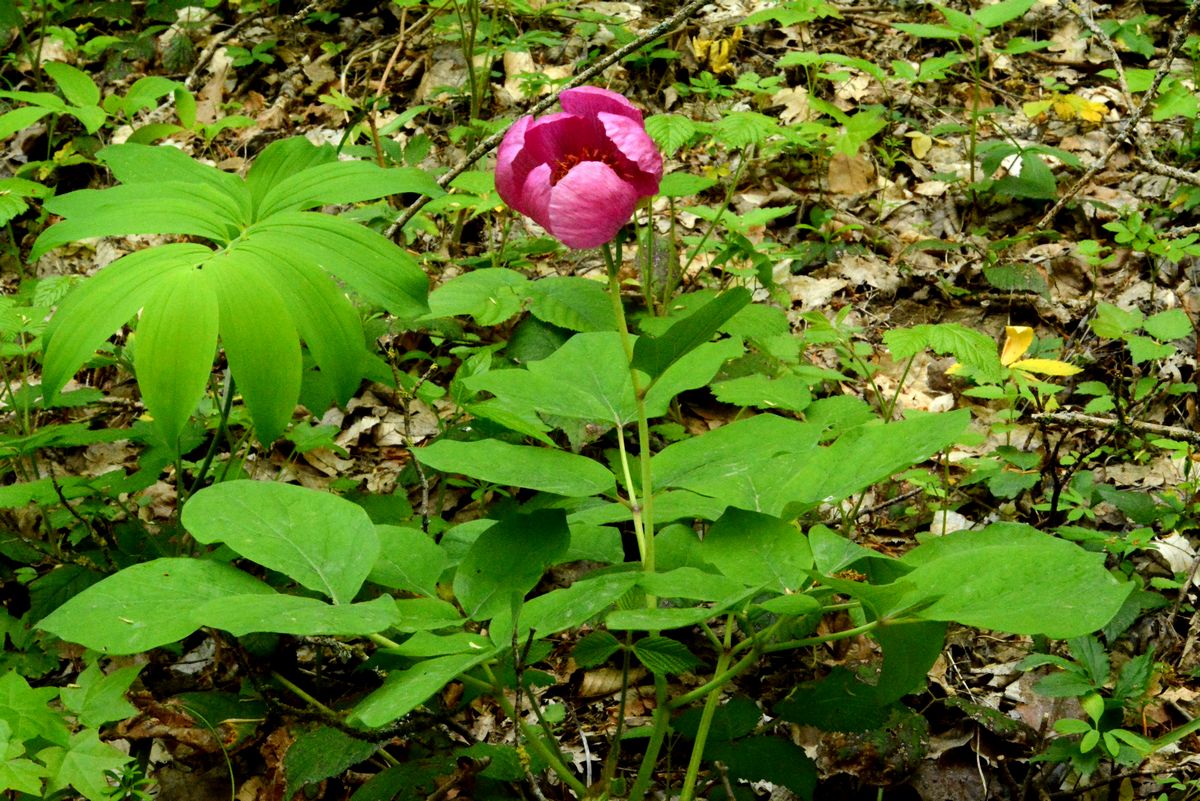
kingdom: Plantae
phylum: Tracheophyta
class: Magnoliopsida
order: Saxifragales
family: Paeoniaceae
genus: Paeonia
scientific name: Paeonia daurica
